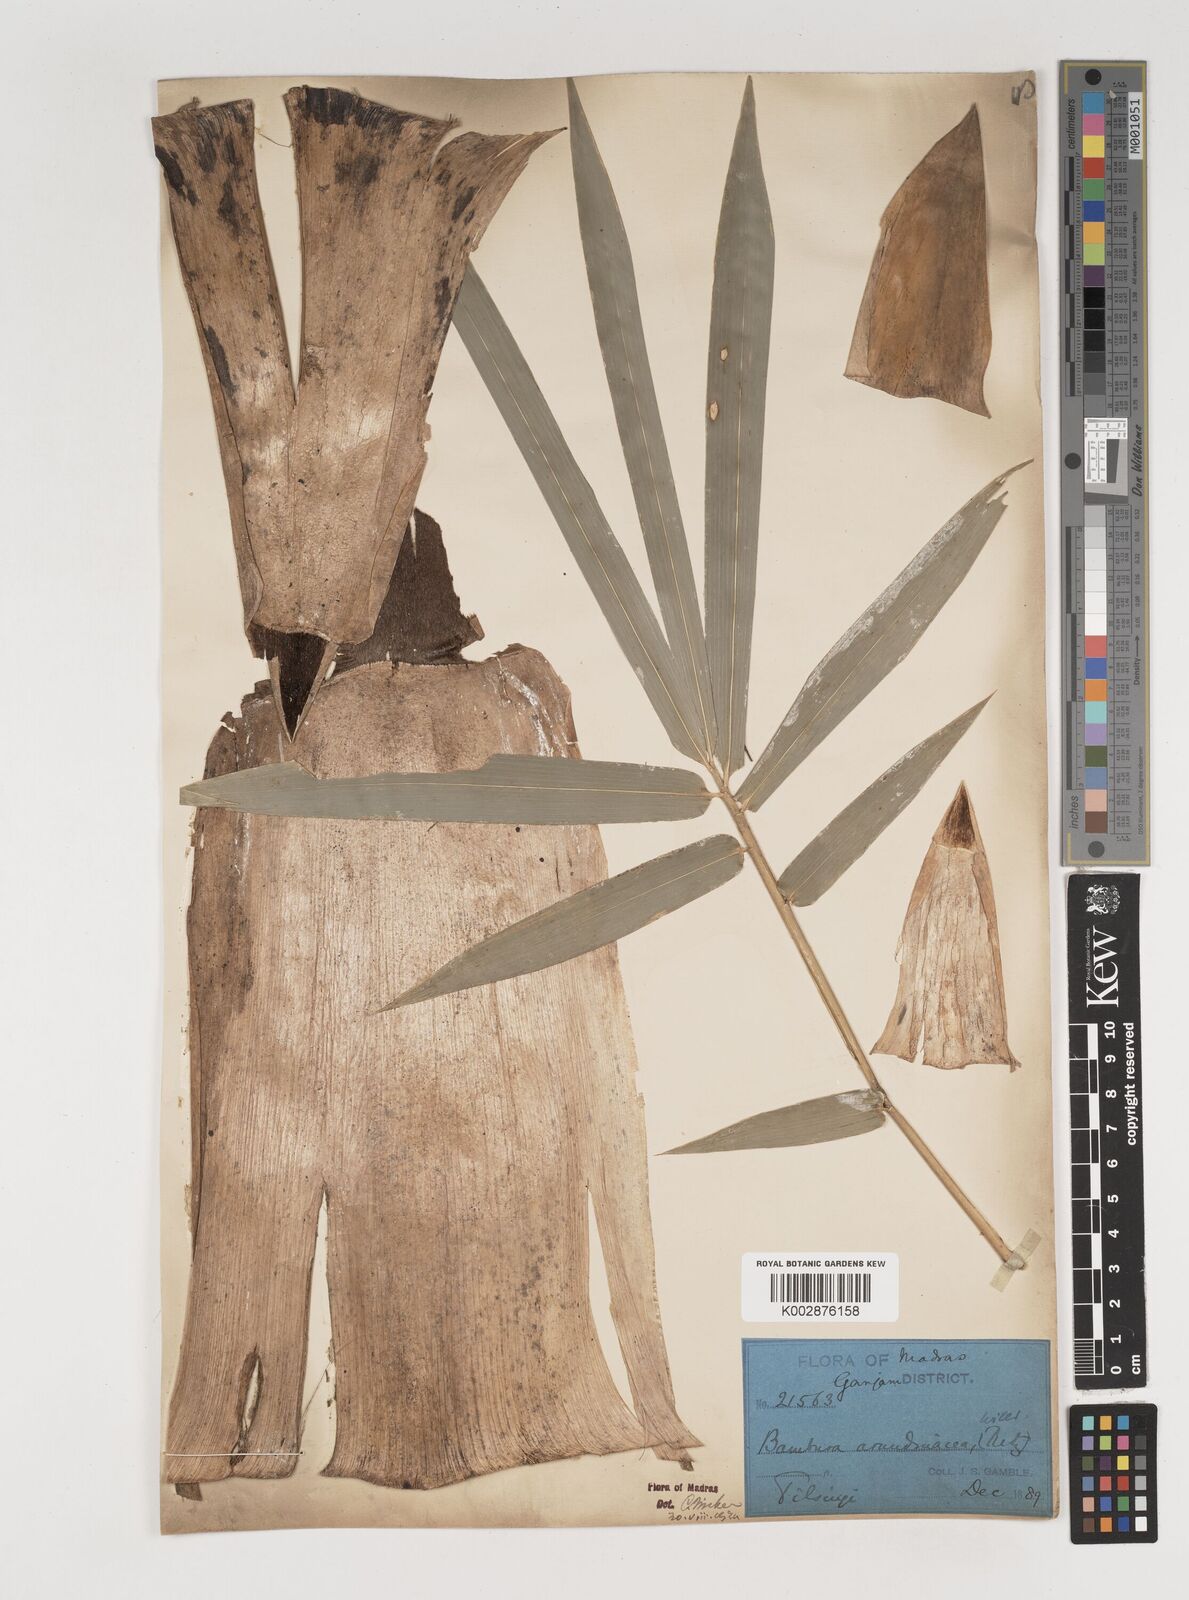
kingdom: Plantae
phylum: Tracheophyta
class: Liliopsida
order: Poales
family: Poaceae
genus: Bambusa
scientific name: Bambusa bambos
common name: Indian thorny bamboo
